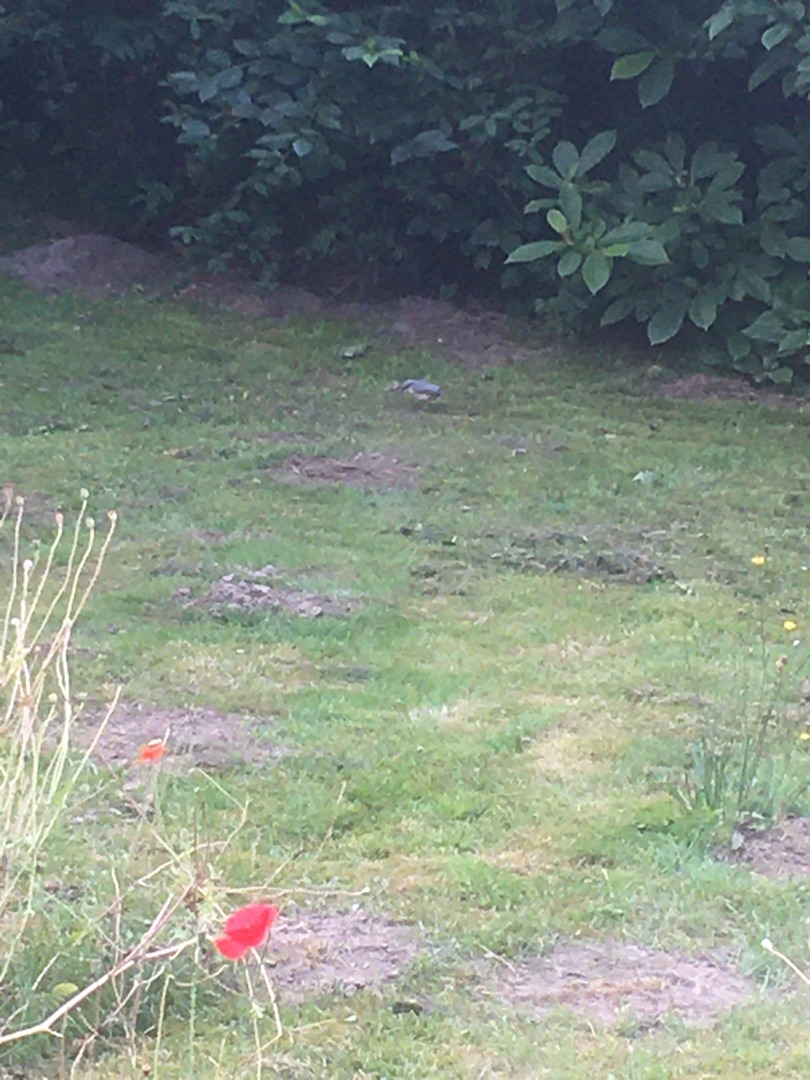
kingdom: Animalia
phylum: Chordata
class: Aves
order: Passeriformes
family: Sittidae
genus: Sitta
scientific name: Sitta europaea
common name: Spætmejse
